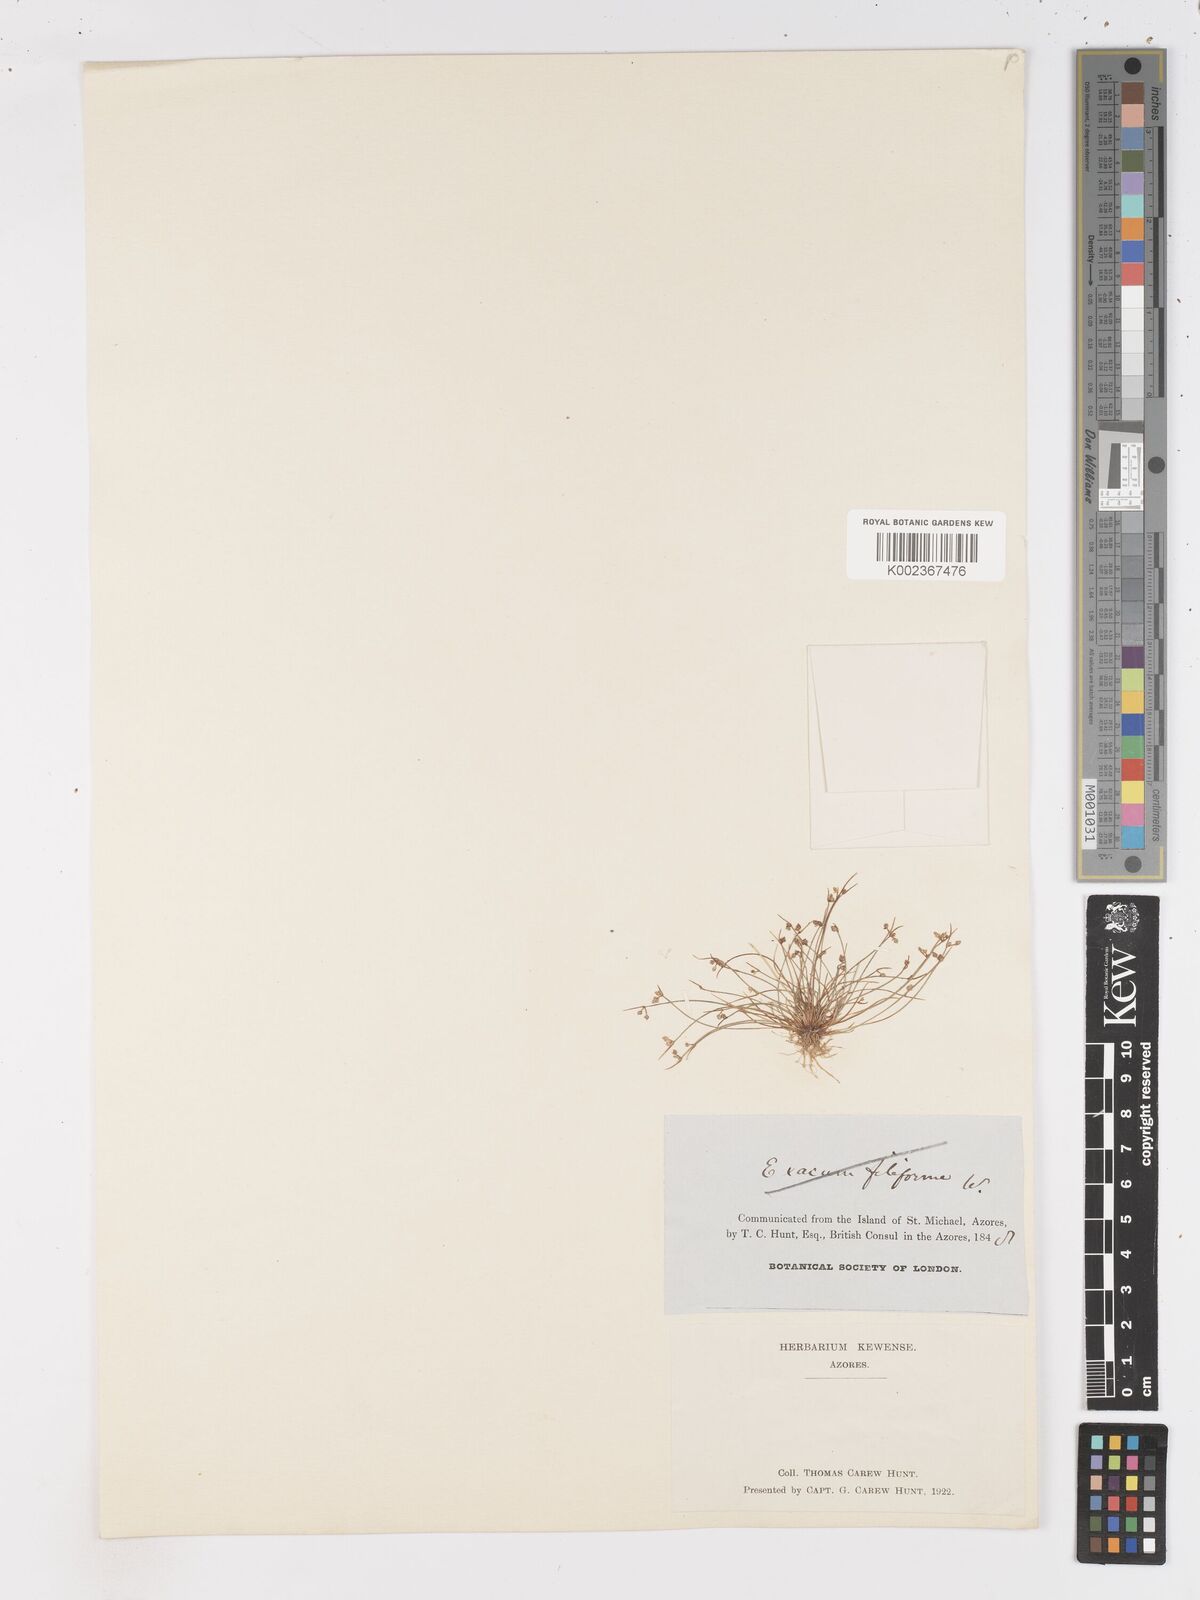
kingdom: Plantae
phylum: Tracheophyta
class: Liliopsida
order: Poales
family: Cyperaceae
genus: Isolepis
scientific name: Isolepis setacea
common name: Bristle club-rush
